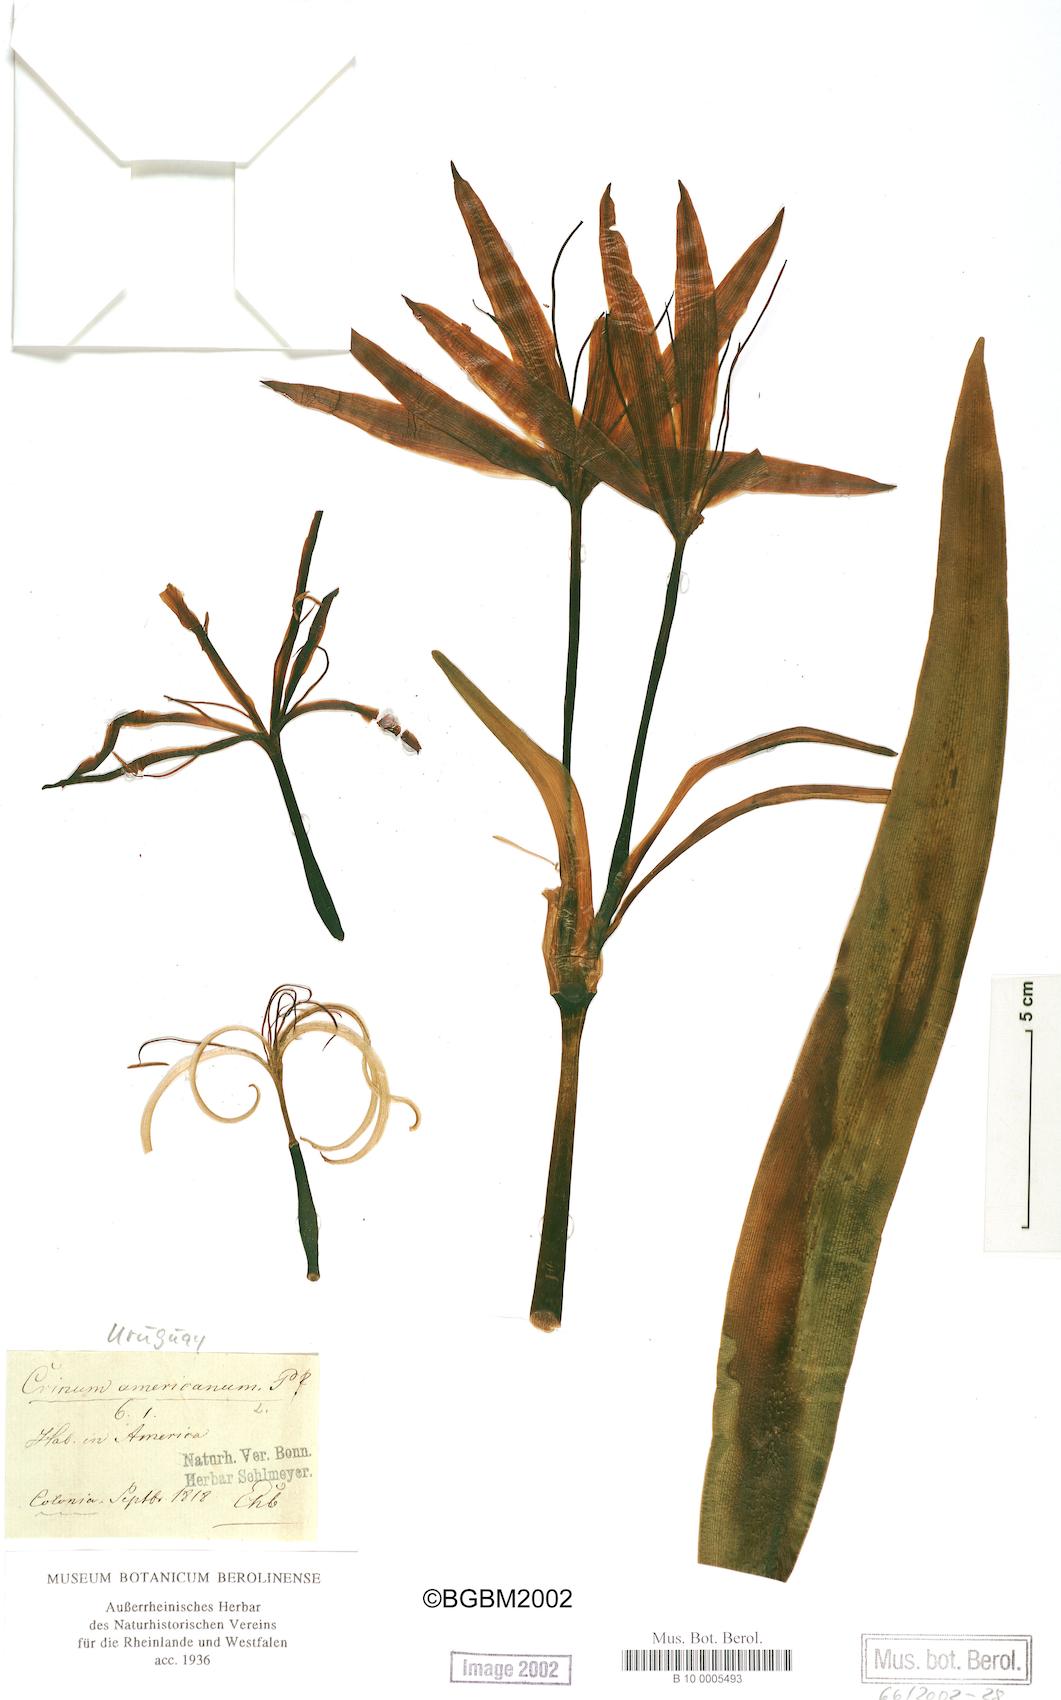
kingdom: Plantae
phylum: Tracheophyta
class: Liliopsida
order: Asparagales
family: Amaryllidaceae
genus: Crinum
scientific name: Crinum americanum
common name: Florida swamp-lily
